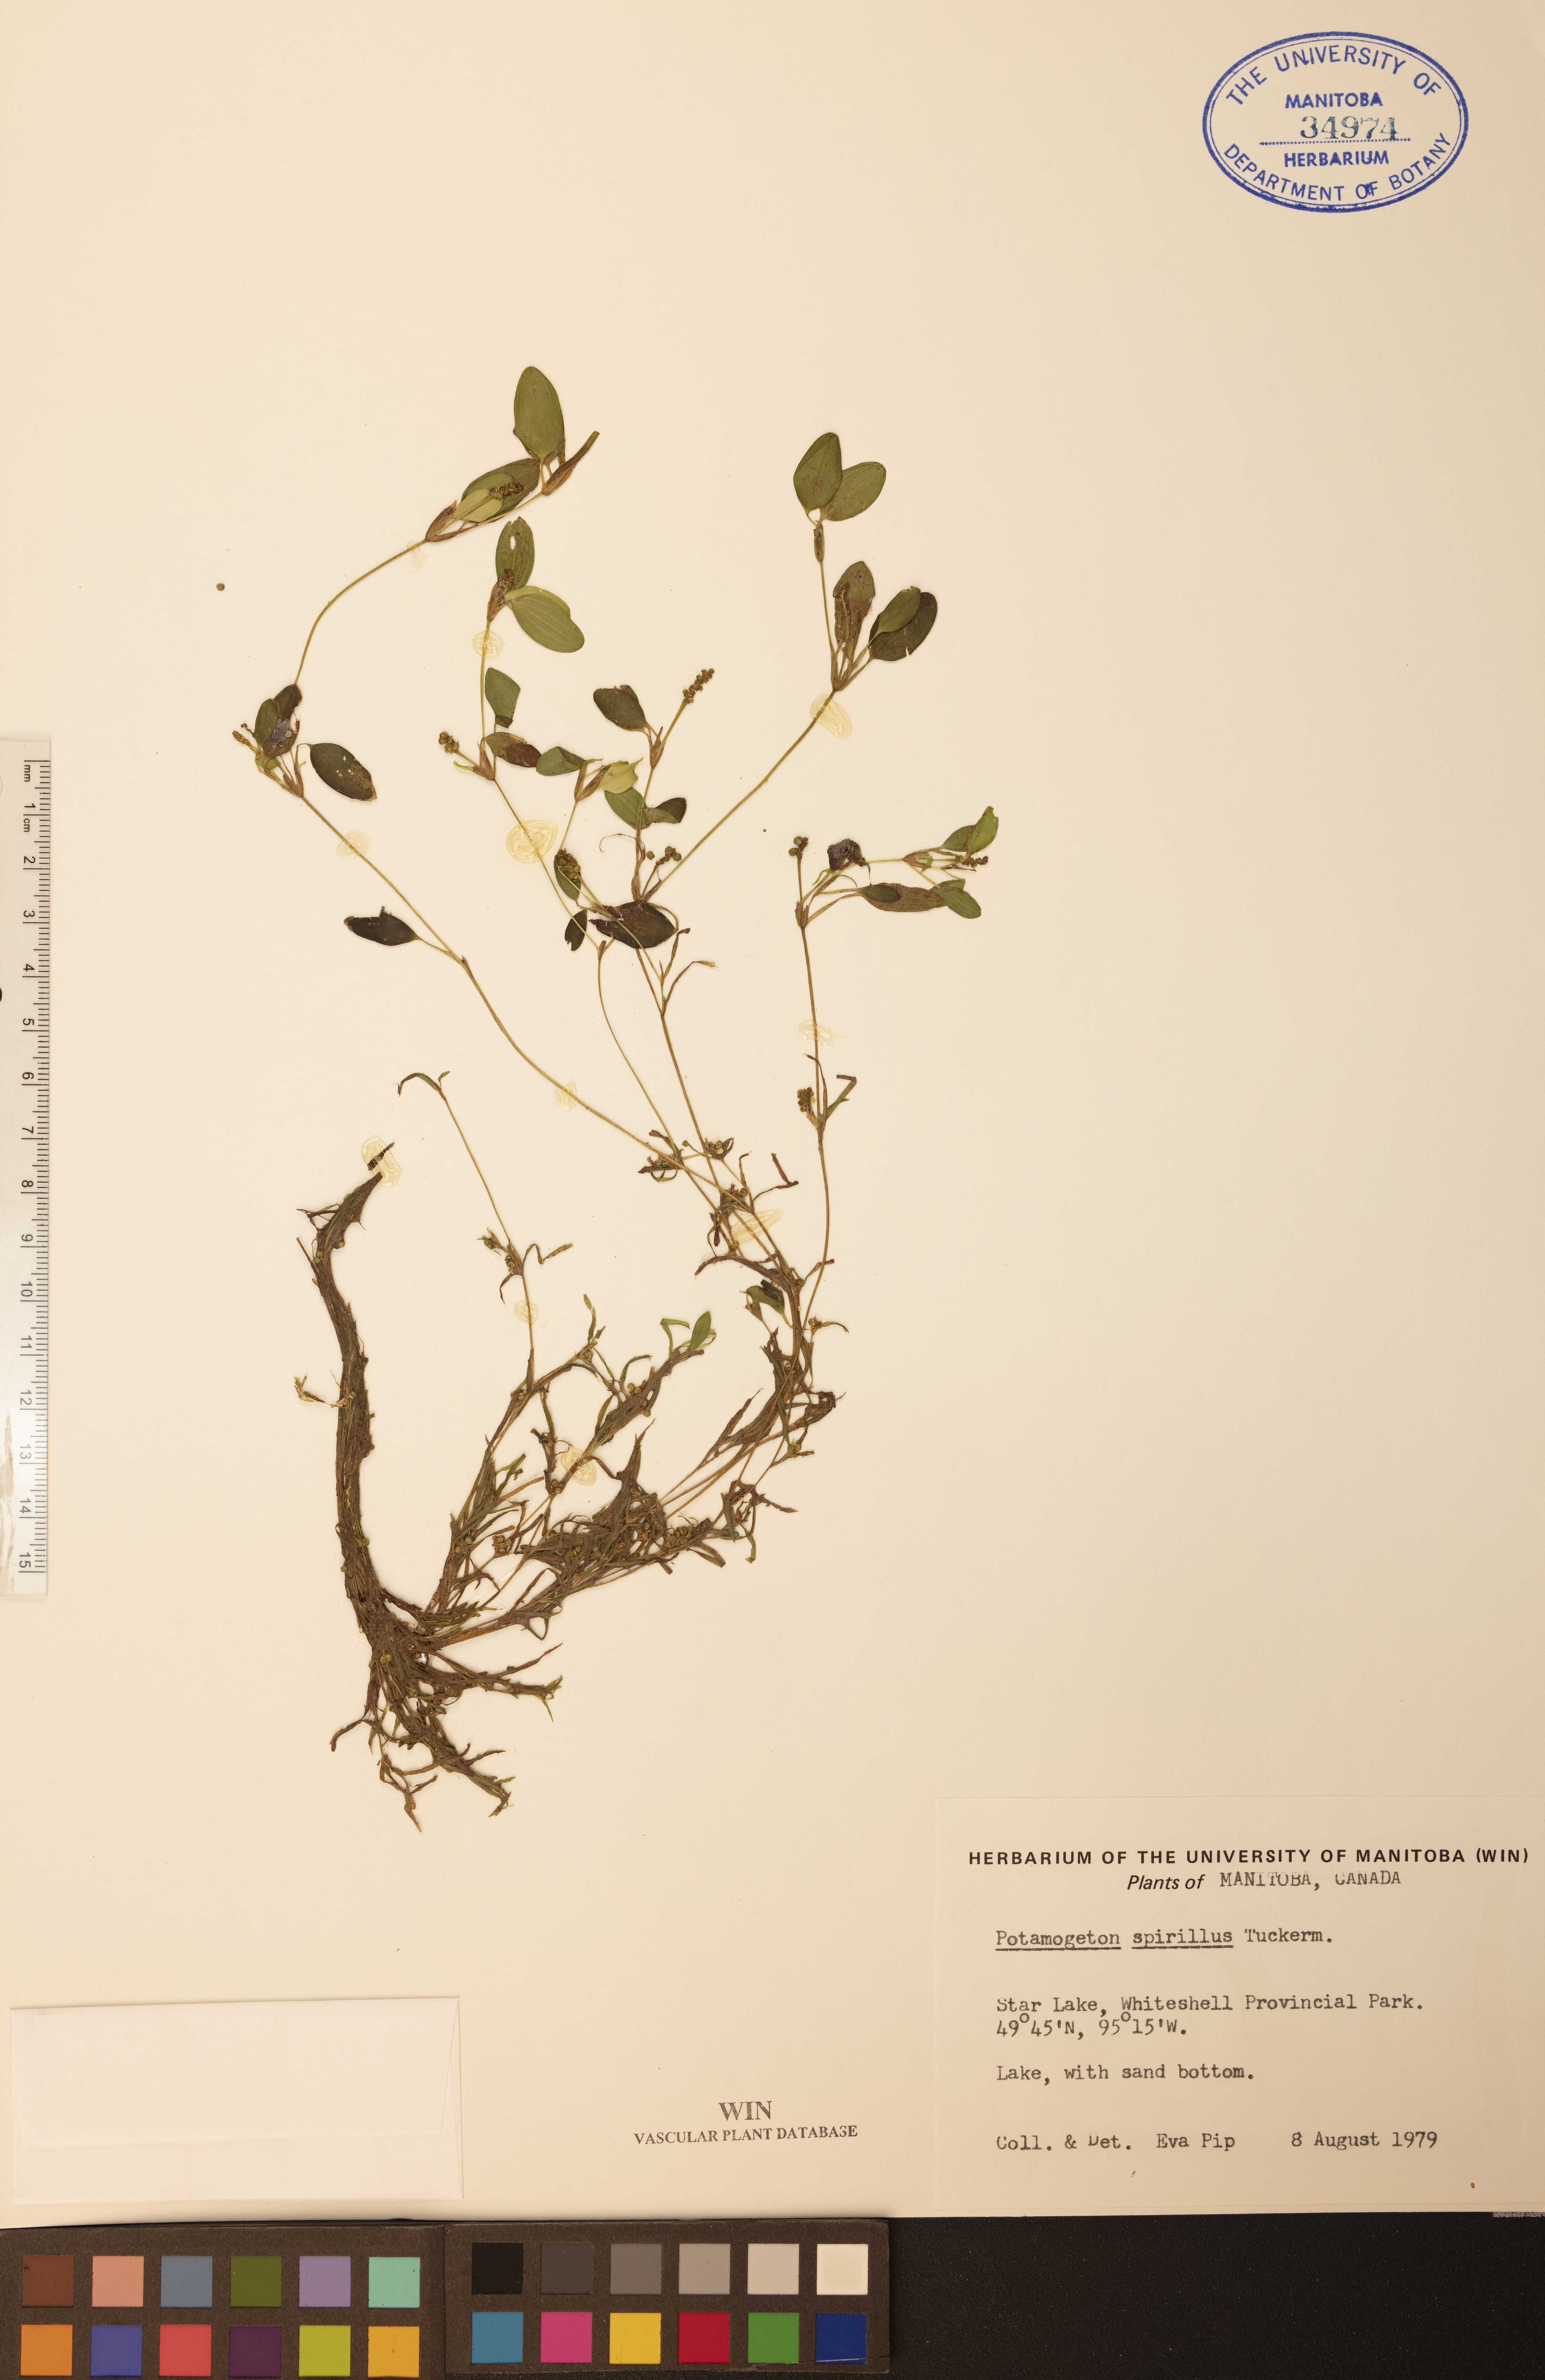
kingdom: Plantae
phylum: Tracheophyta
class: Liliopsida
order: Alismatales
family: Potamogetonaceae
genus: Potamogeton
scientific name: Potamogeton spirillus
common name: Northern snail-seed pondweed
